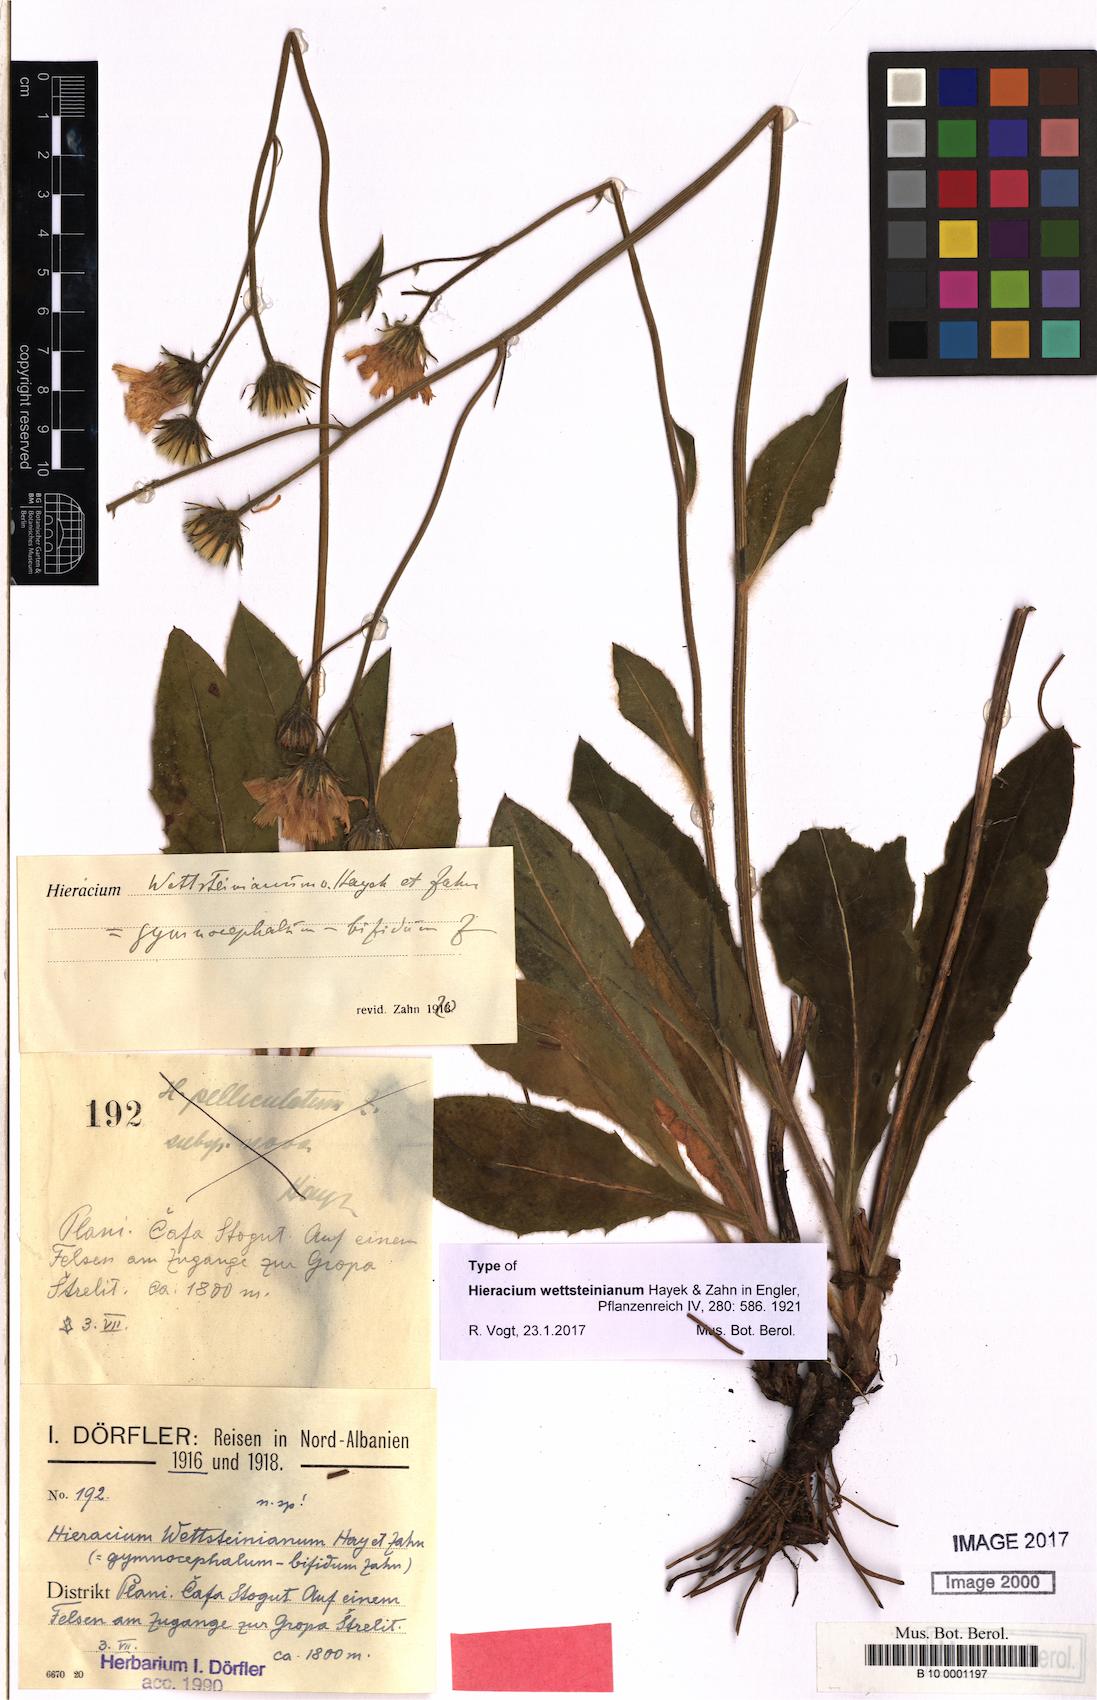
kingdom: Plantae
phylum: Tracheophyta
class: Magnoliopsida
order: Asterales
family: Asteraceae
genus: Hieracium
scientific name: Hieracium wettsteinianum
